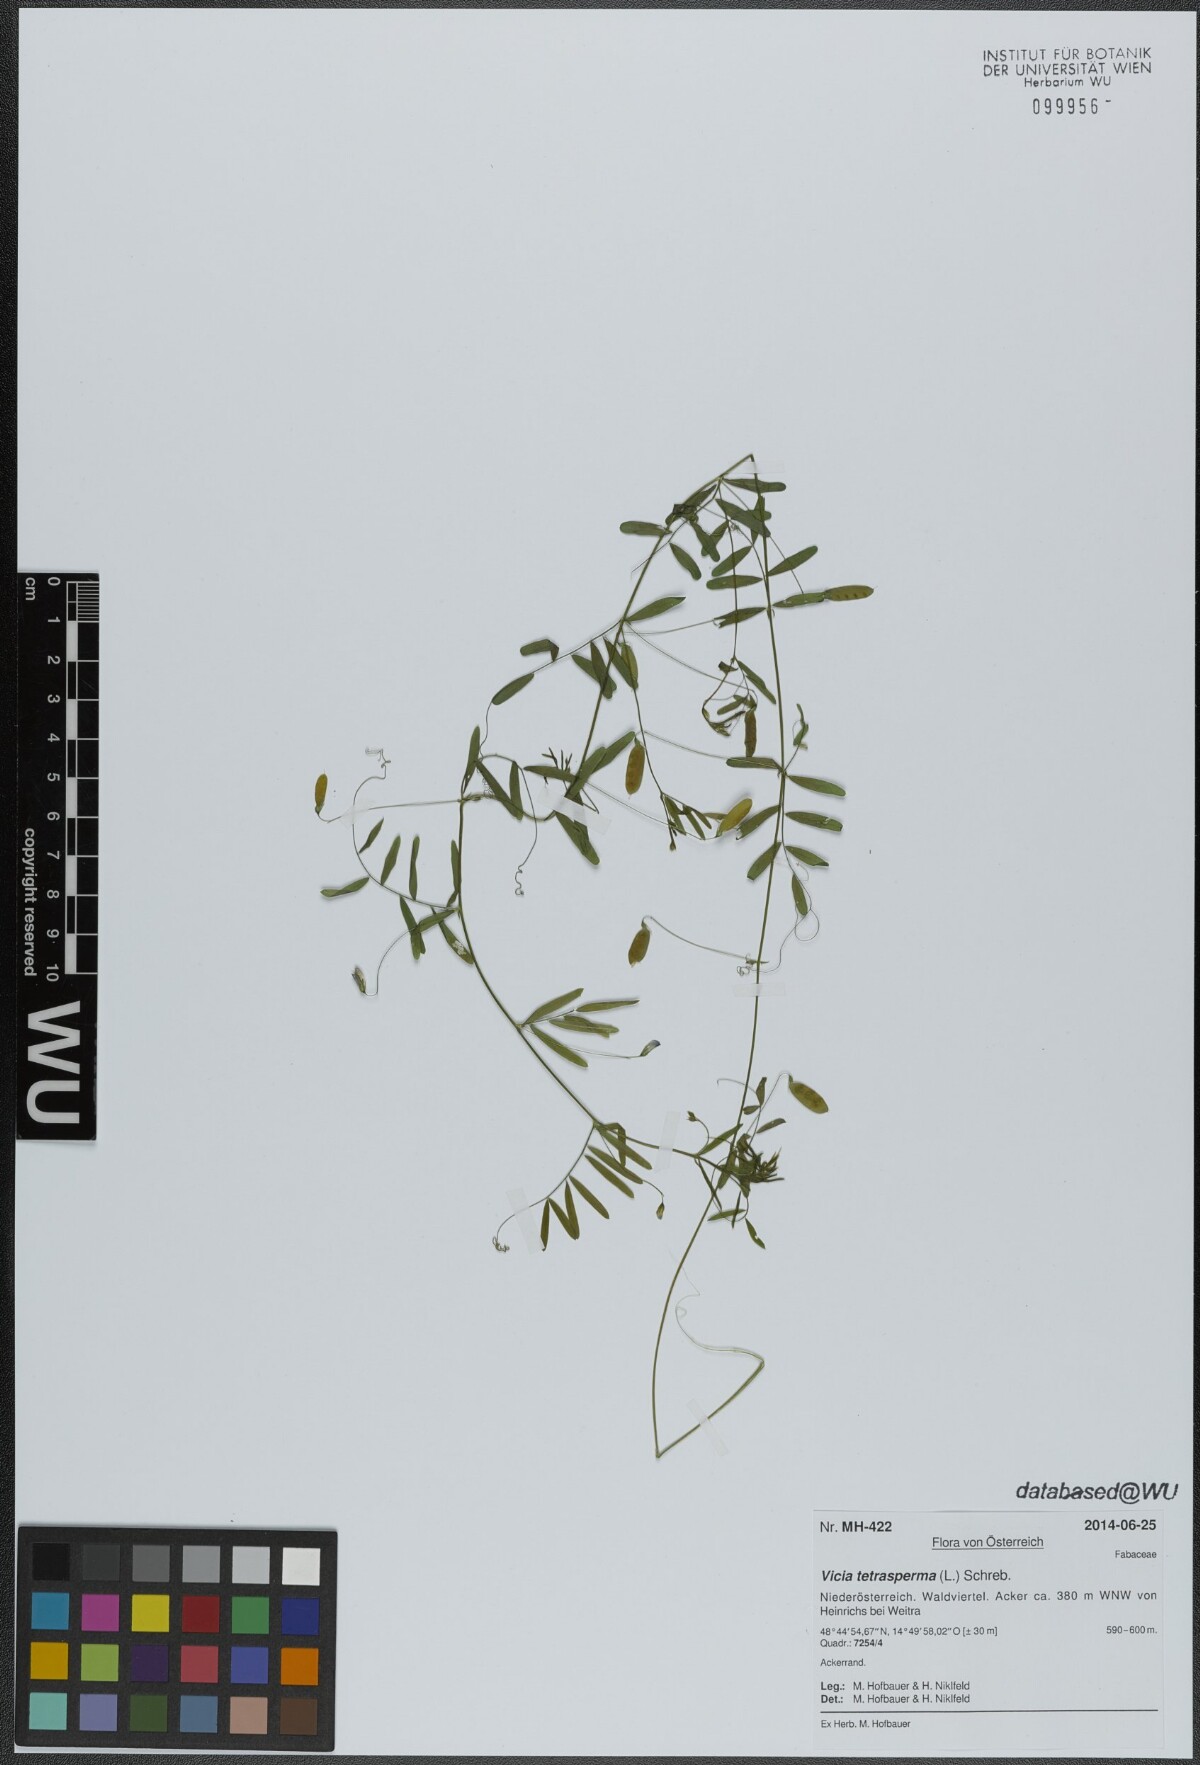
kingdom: Plantae
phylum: Tracheophyta
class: Magnoliopsida
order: Fabales
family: Fabaceae
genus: Vicia
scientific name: Vicia tetrasperma
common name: Smooth tare
